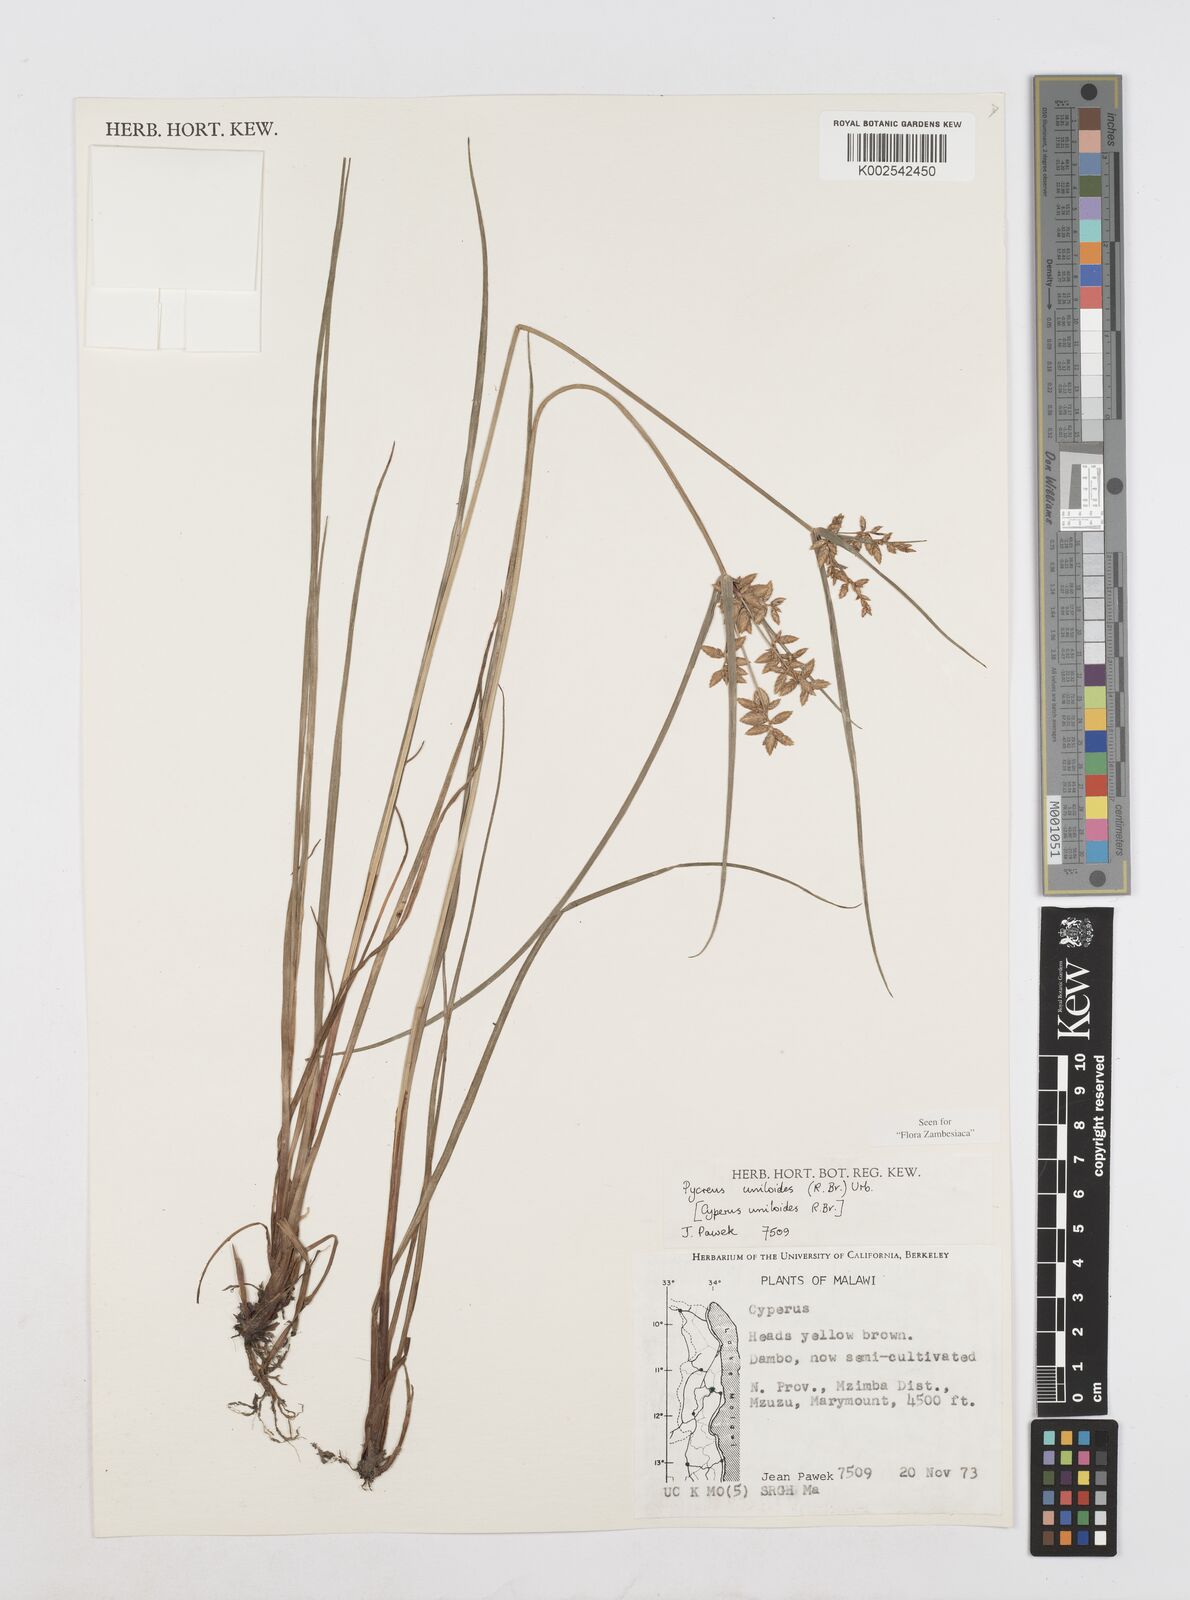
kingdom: Plantae
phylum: Tracheophyta
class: Liliopsida
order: Poales
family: Cyperaceae
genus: Cyperus
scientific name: Cyperus unioloides
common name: Uniola flatsedge
